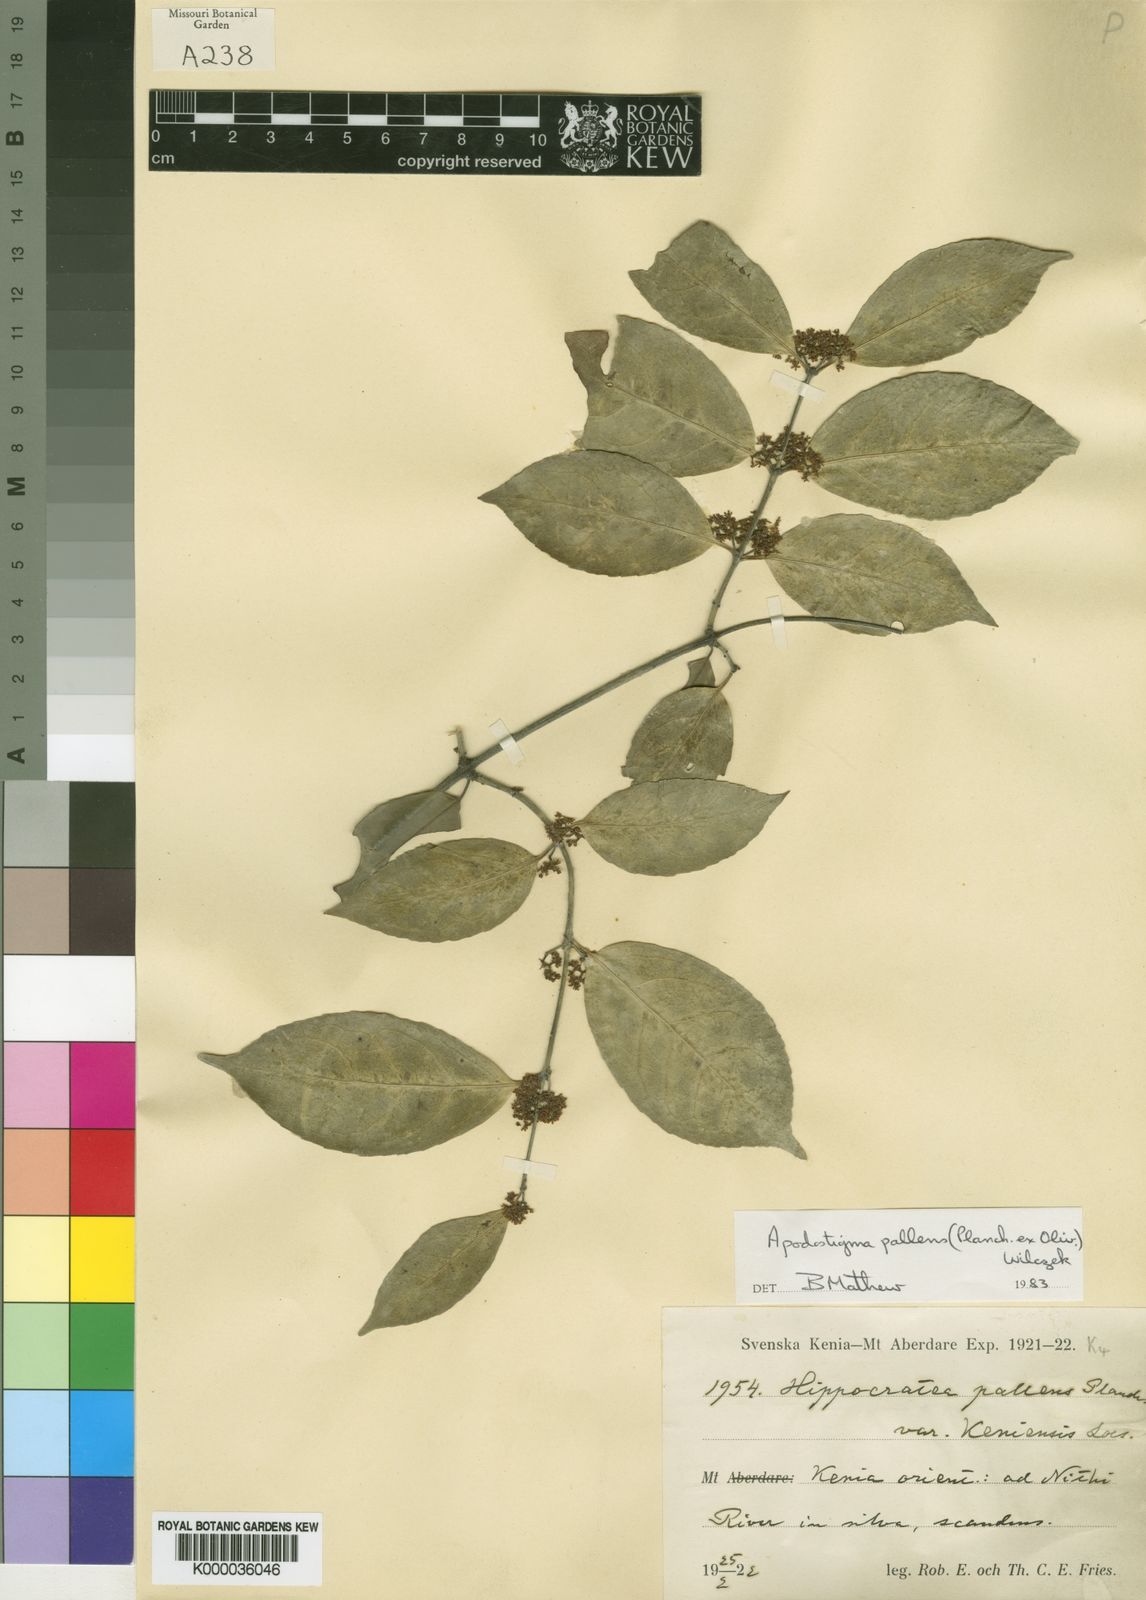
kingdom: Plantae
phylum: Tracheophyta
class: Magnoliopsida
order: Celastrales
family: Celastraceae
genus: Apodostigma
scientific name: Apodostigma pallens
